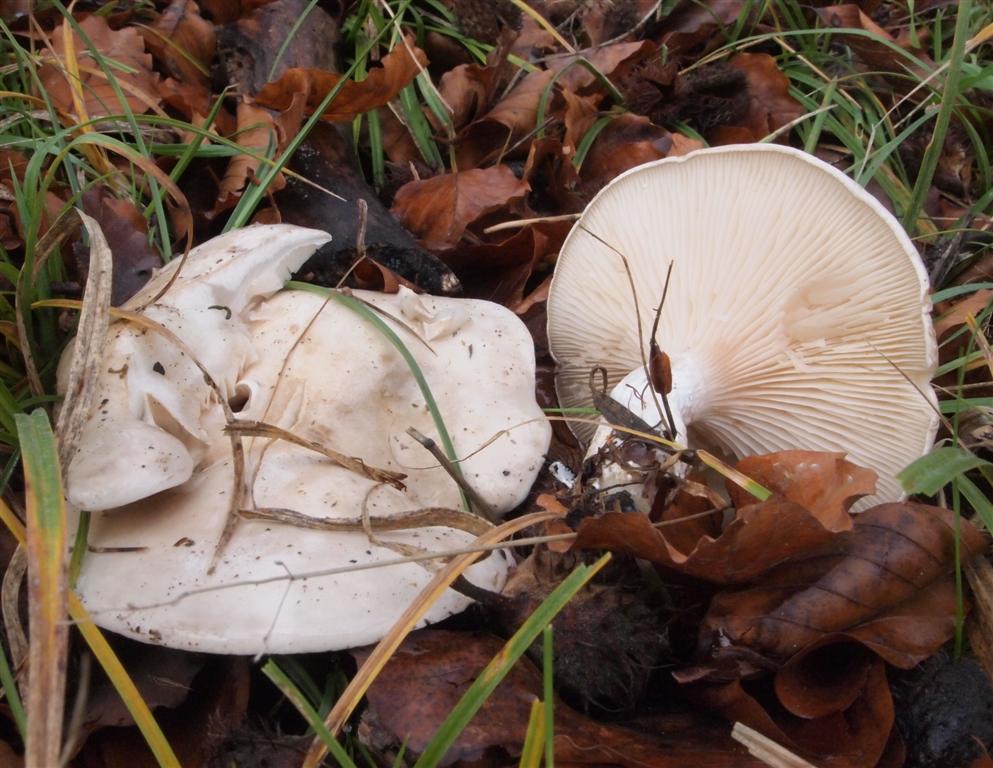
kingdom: Fungi
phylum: Basidiomycota
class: Agaricomycetes
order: Agaricales
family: Entolomataceae
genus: Clitopilus
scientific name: Clitopilus prunulus
